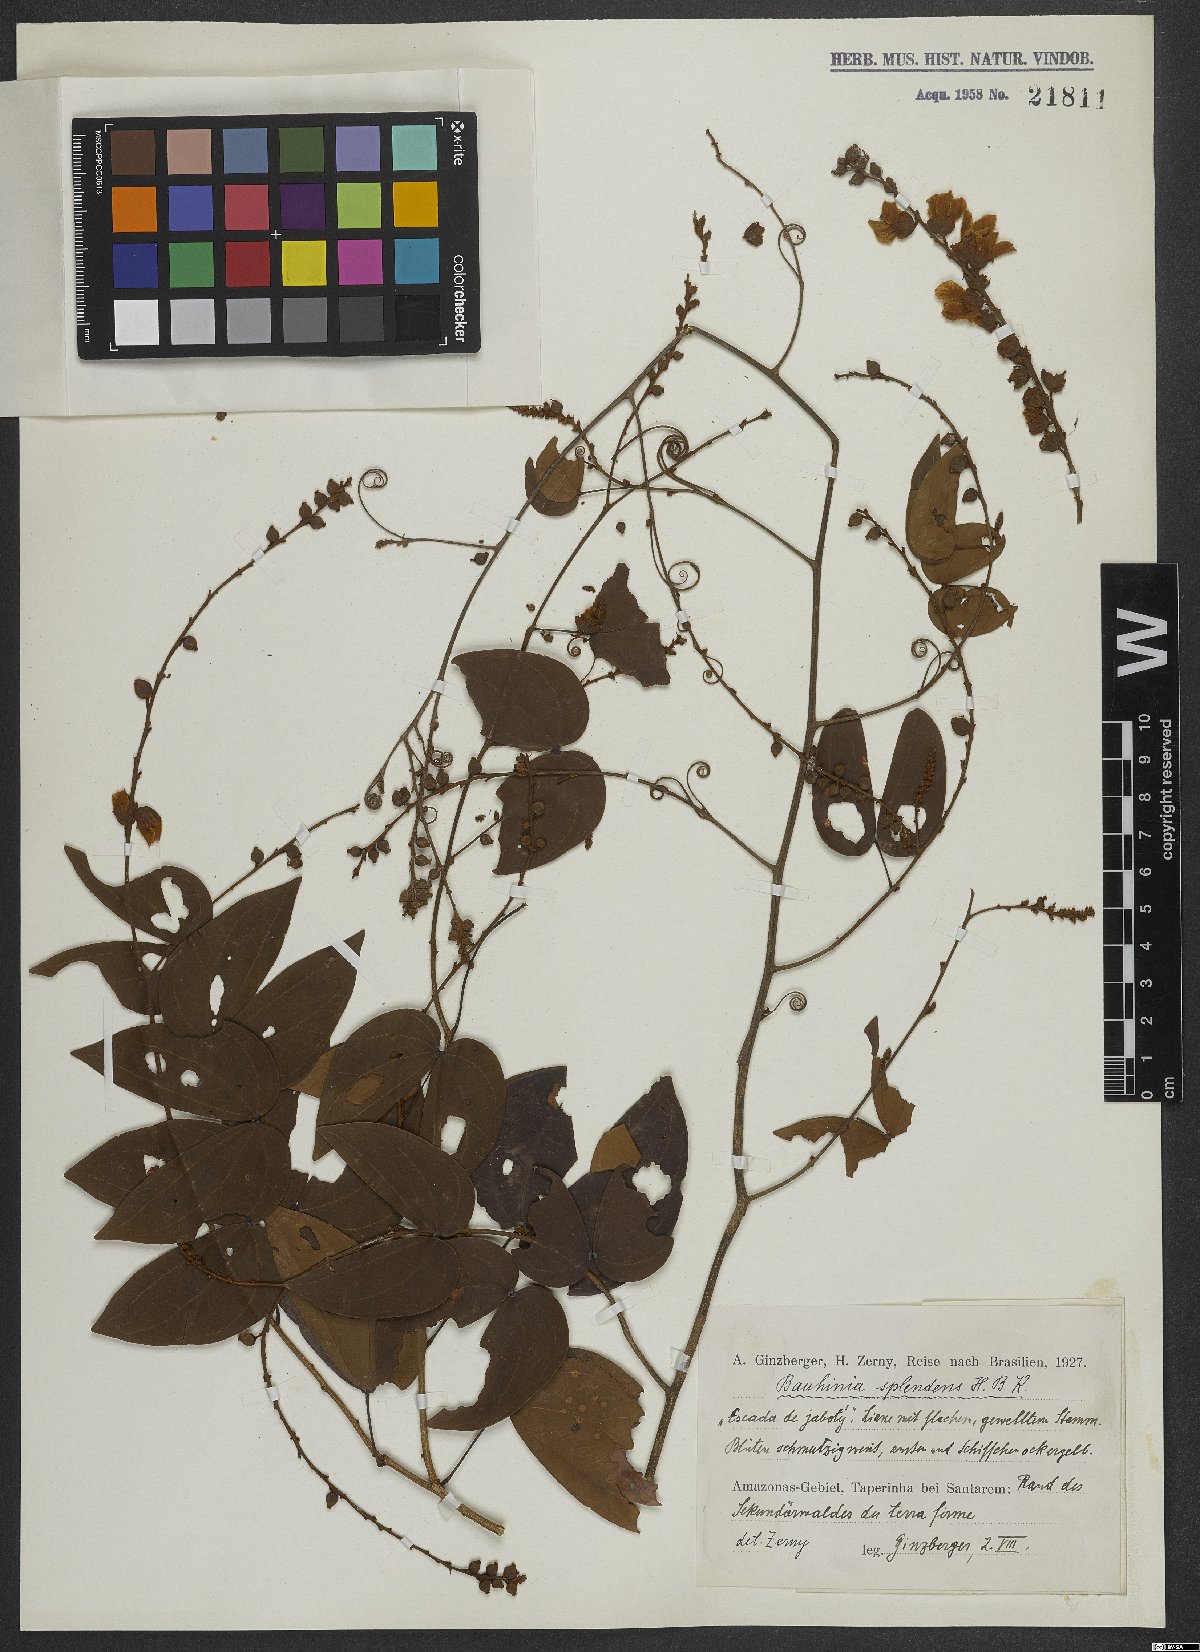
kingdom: Plantae
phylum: Tracheophyta
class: Magnoliopsida
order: Fabales
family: Fabaceae
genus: Schnella
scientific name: Schnella splendens
